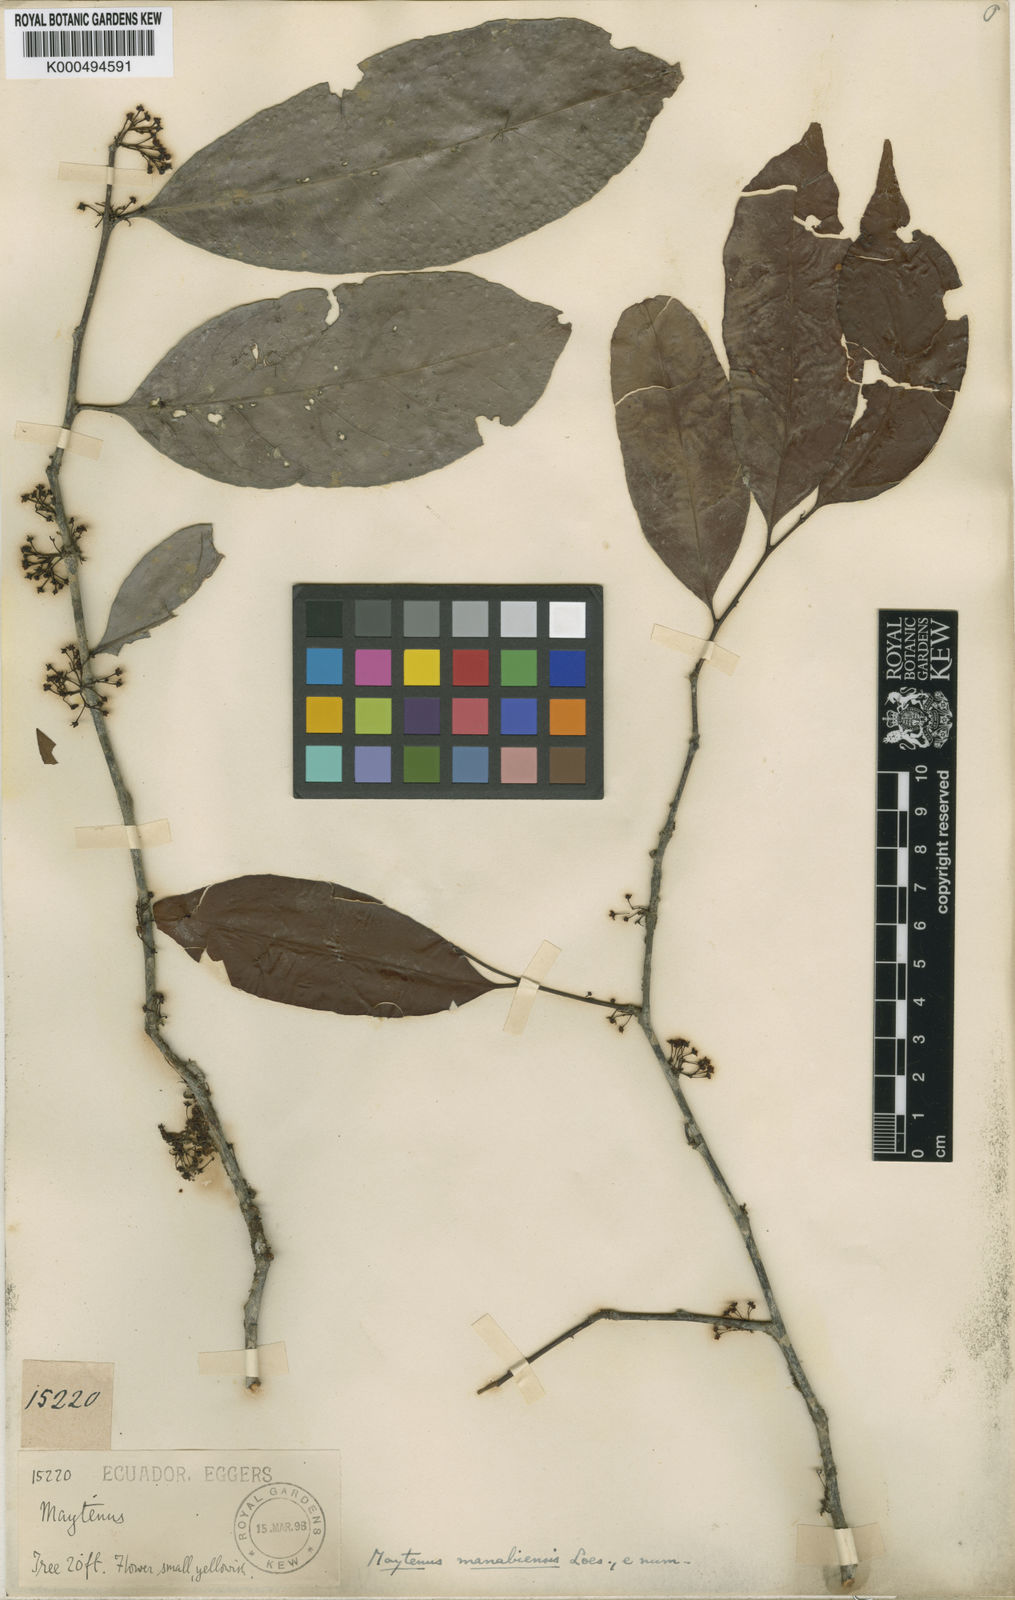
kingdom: Plantae
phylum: Tracheophyta
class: Magnoliopsida
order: Celastrales
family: Celastraceae
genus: Monteverdia
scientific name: Monteverdia manabiensis
